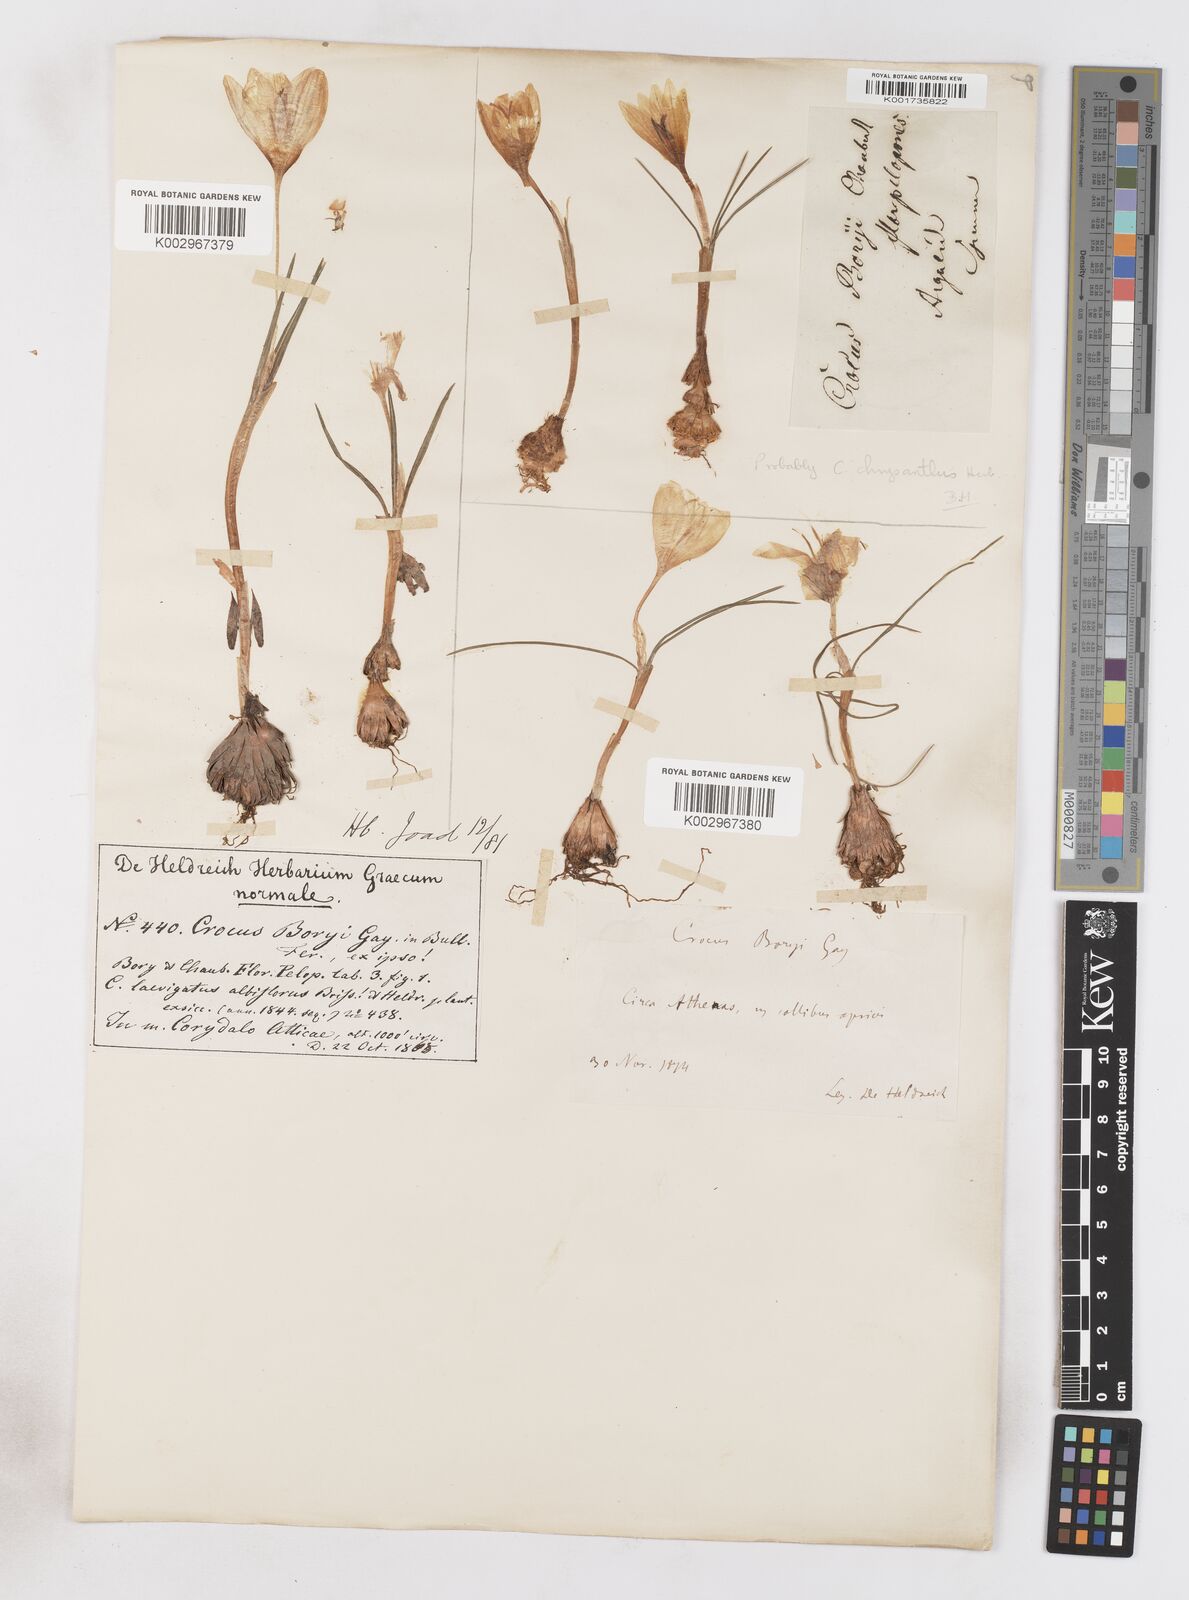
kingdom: Plantae
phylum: Tracheophyta
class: Liliopsida
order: Asparagales
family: Iridaceae
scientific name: Iridaceae
